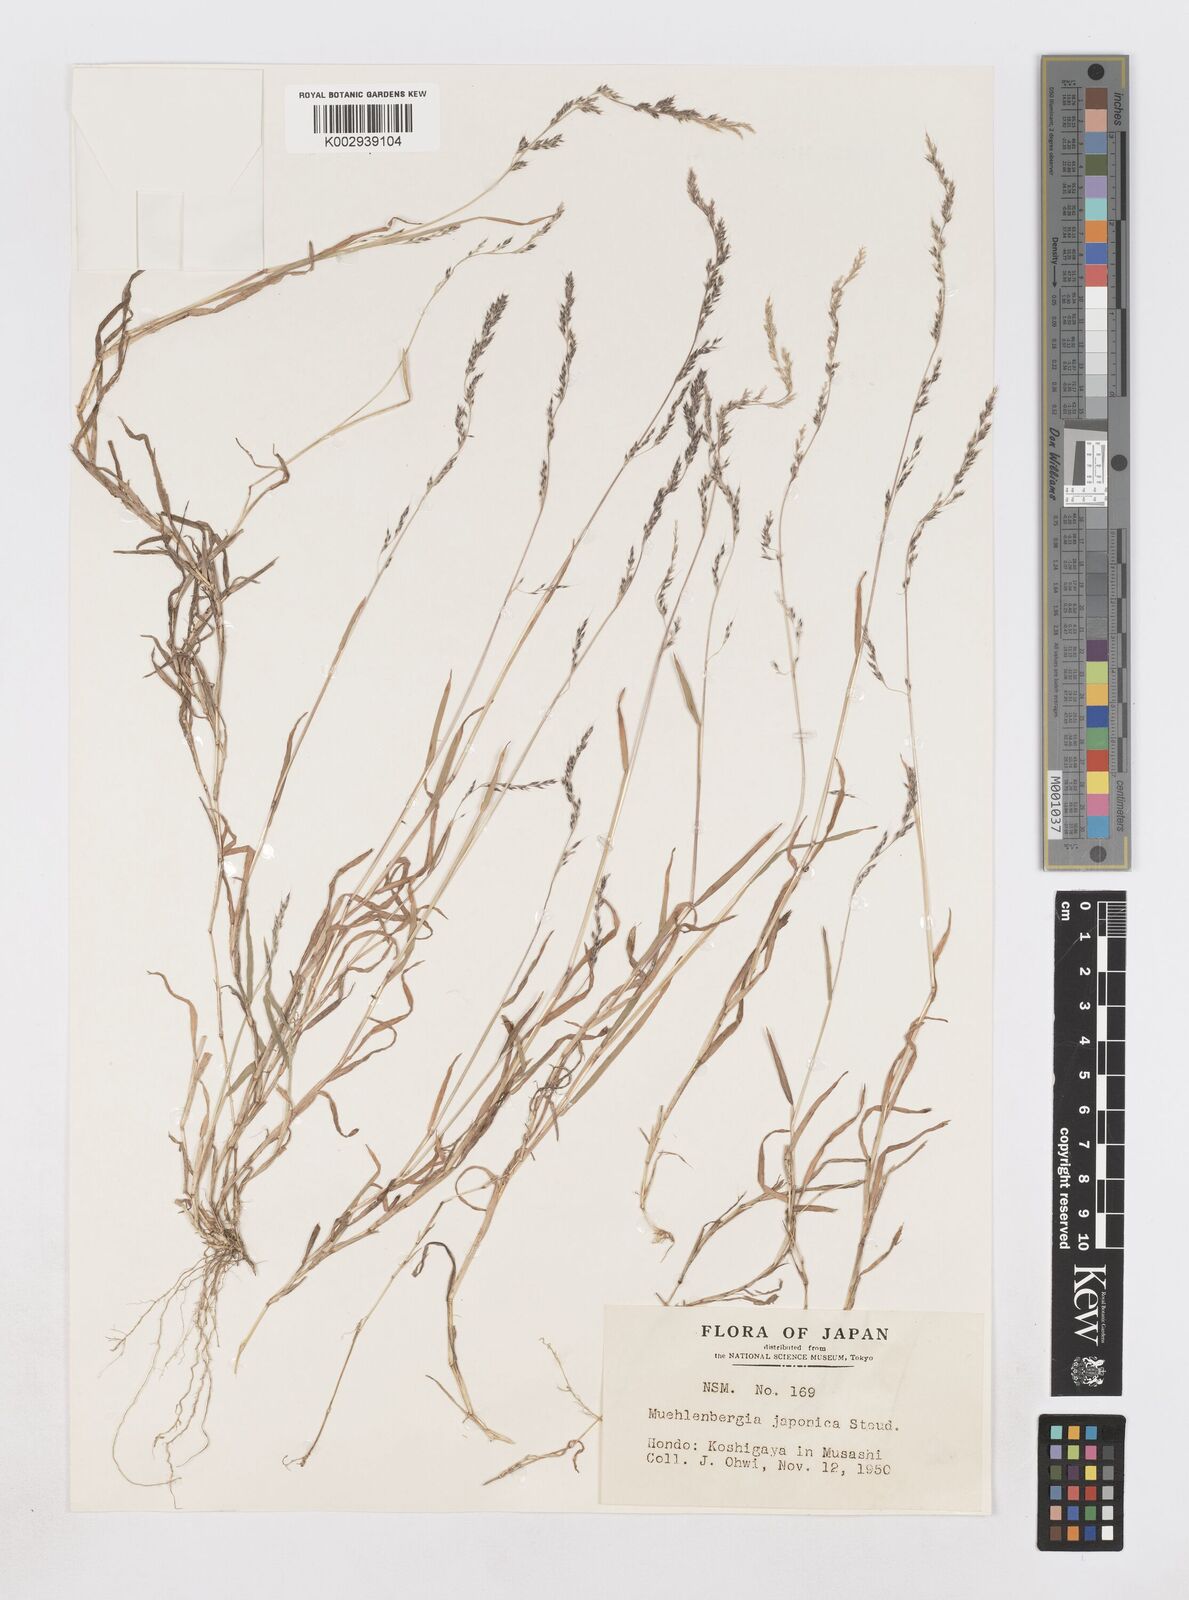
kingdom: Plantae
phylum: Tracheophyta
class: Liliopsida
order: Poales
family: Poaceae
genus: Muhlenbergia
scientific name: Muhlenbergia japonica
